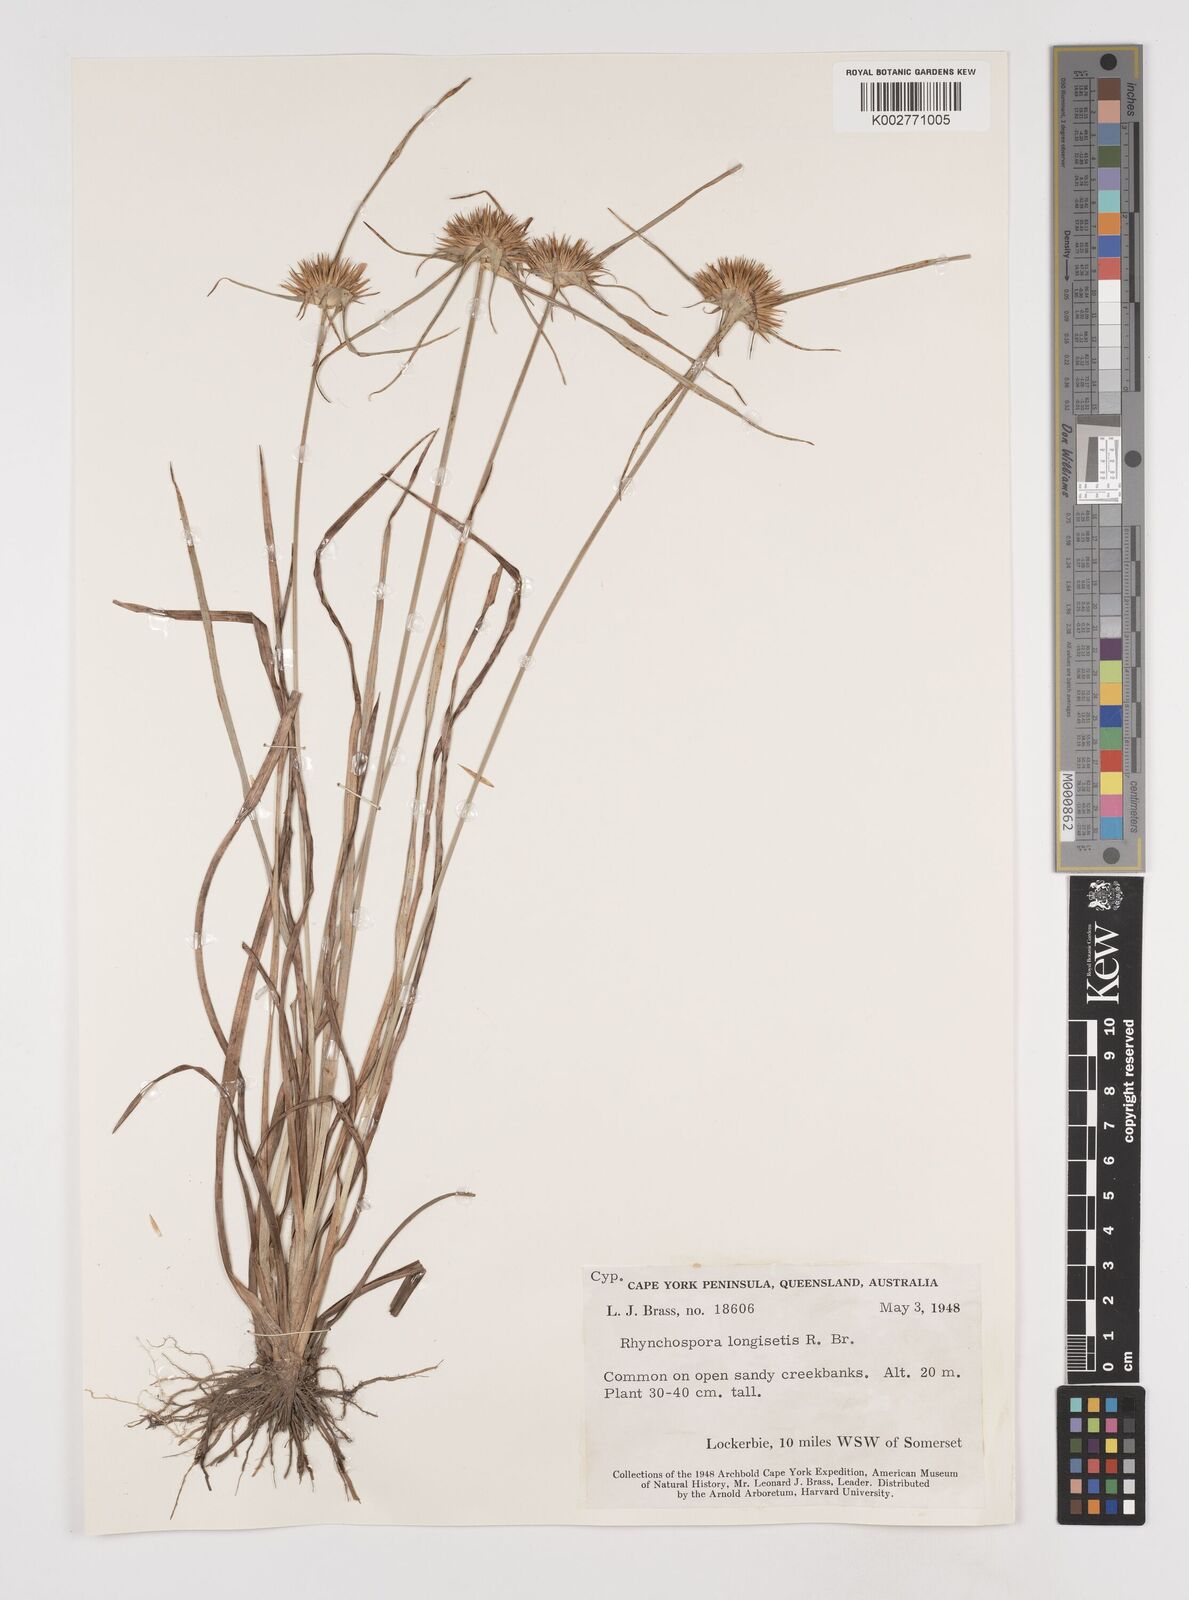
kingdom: Plantae
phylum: Tracheophyta
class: Liliopsida
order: Poales
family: Cyperaceae
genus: Rhynchospora
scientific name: Rhynchospora longisetis
